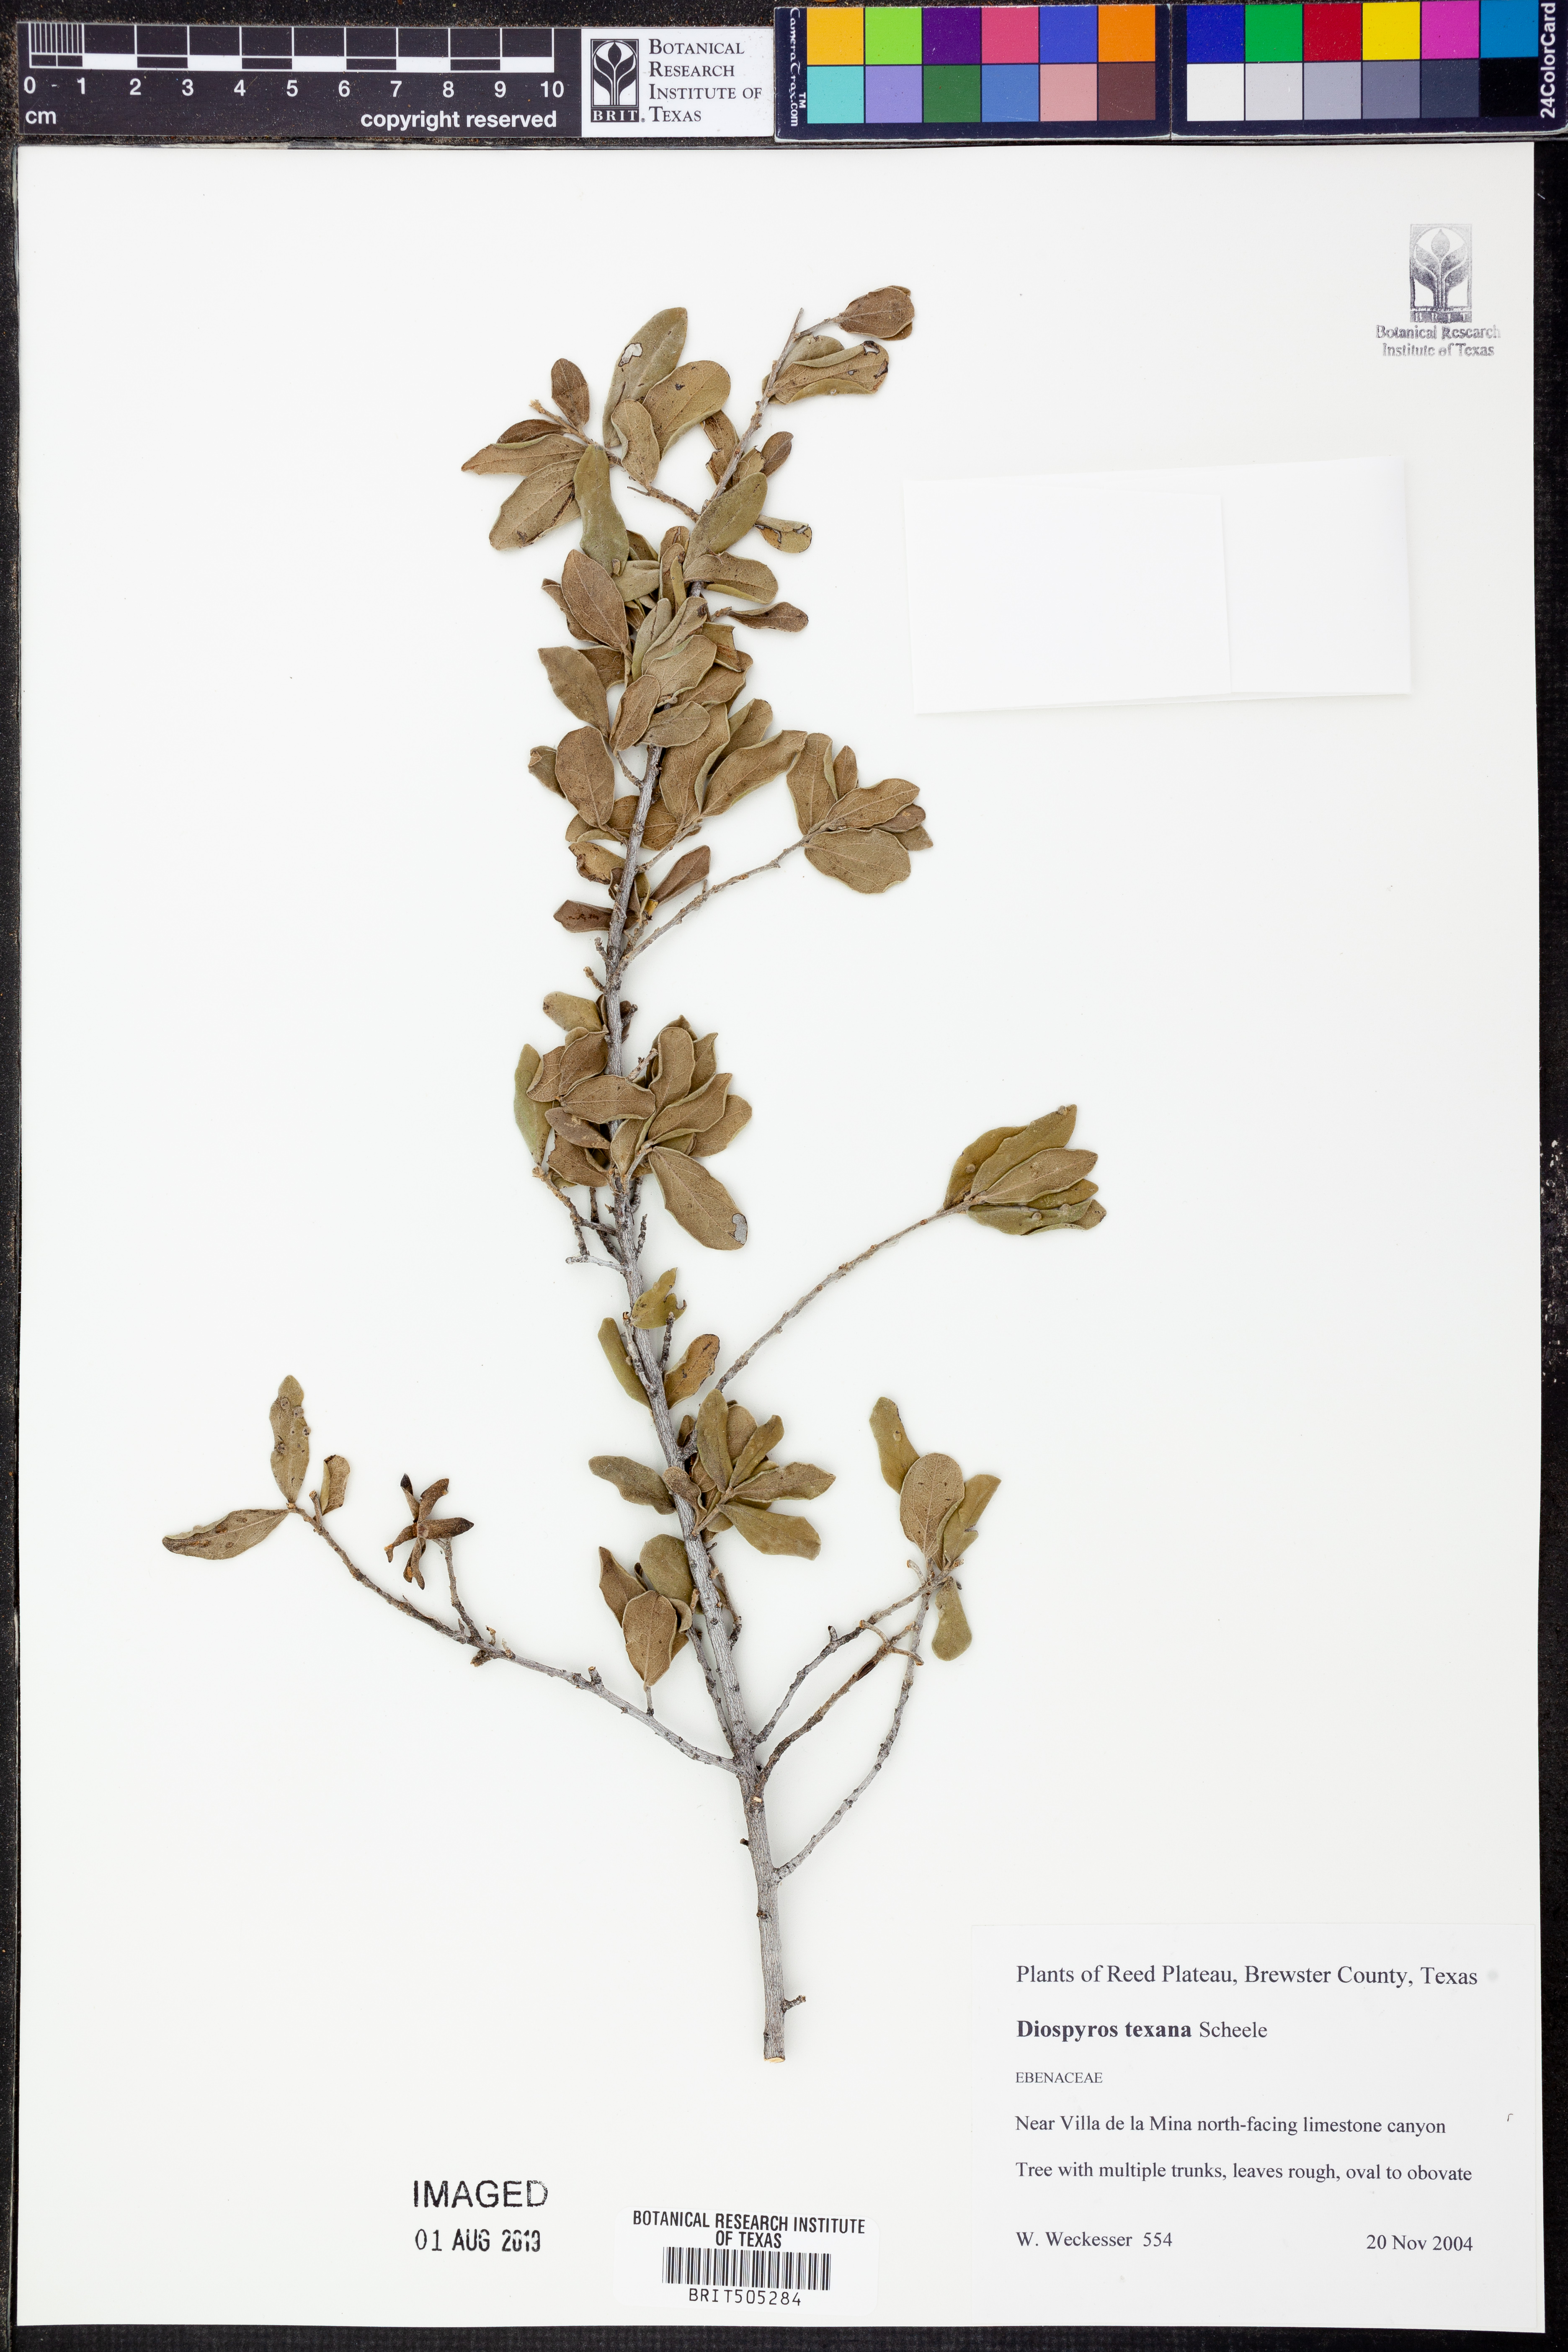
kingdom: Plantae
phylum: Tracheophyta
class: Magnoliopsida
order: Ericales
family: Ebenaceae
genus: Diospyros
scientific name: Diospyros texana
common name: Texas persimmon
